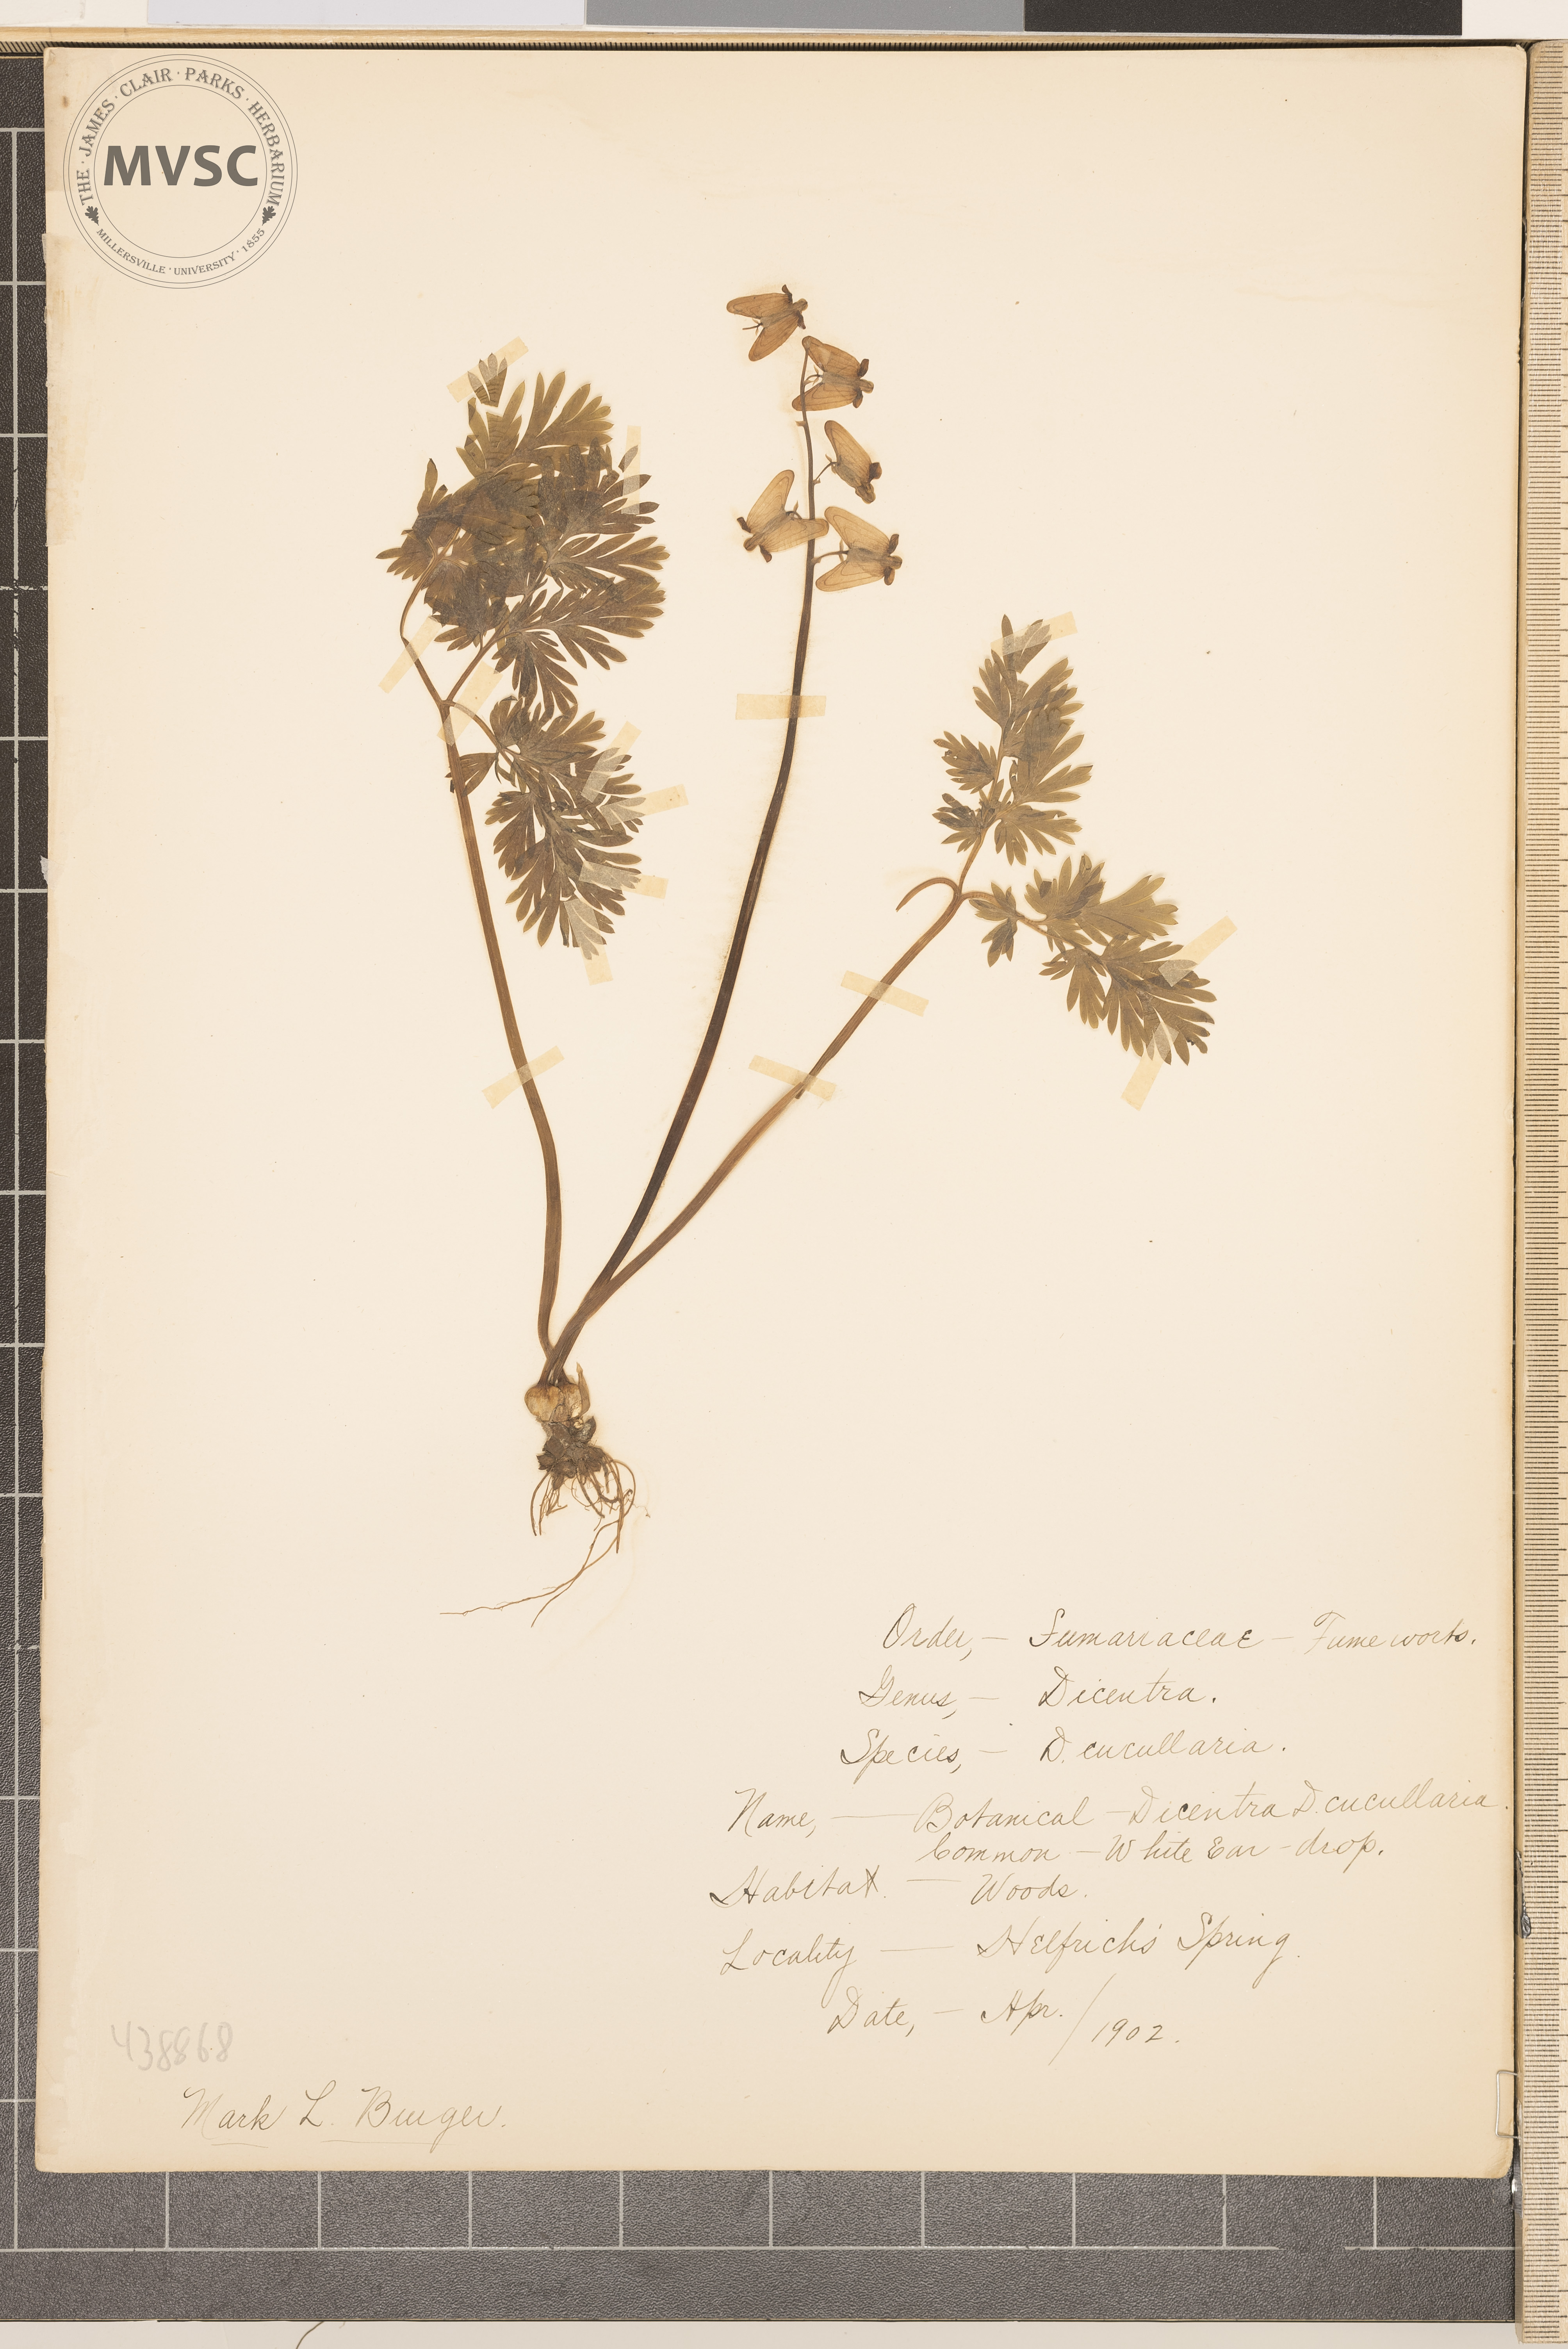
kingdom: Plantae
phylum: Tracheophyta
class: Magnoliopsida
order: Ranunculales
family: Papaveraceae
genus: Dicentra
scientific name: Dicentra cucullaria
